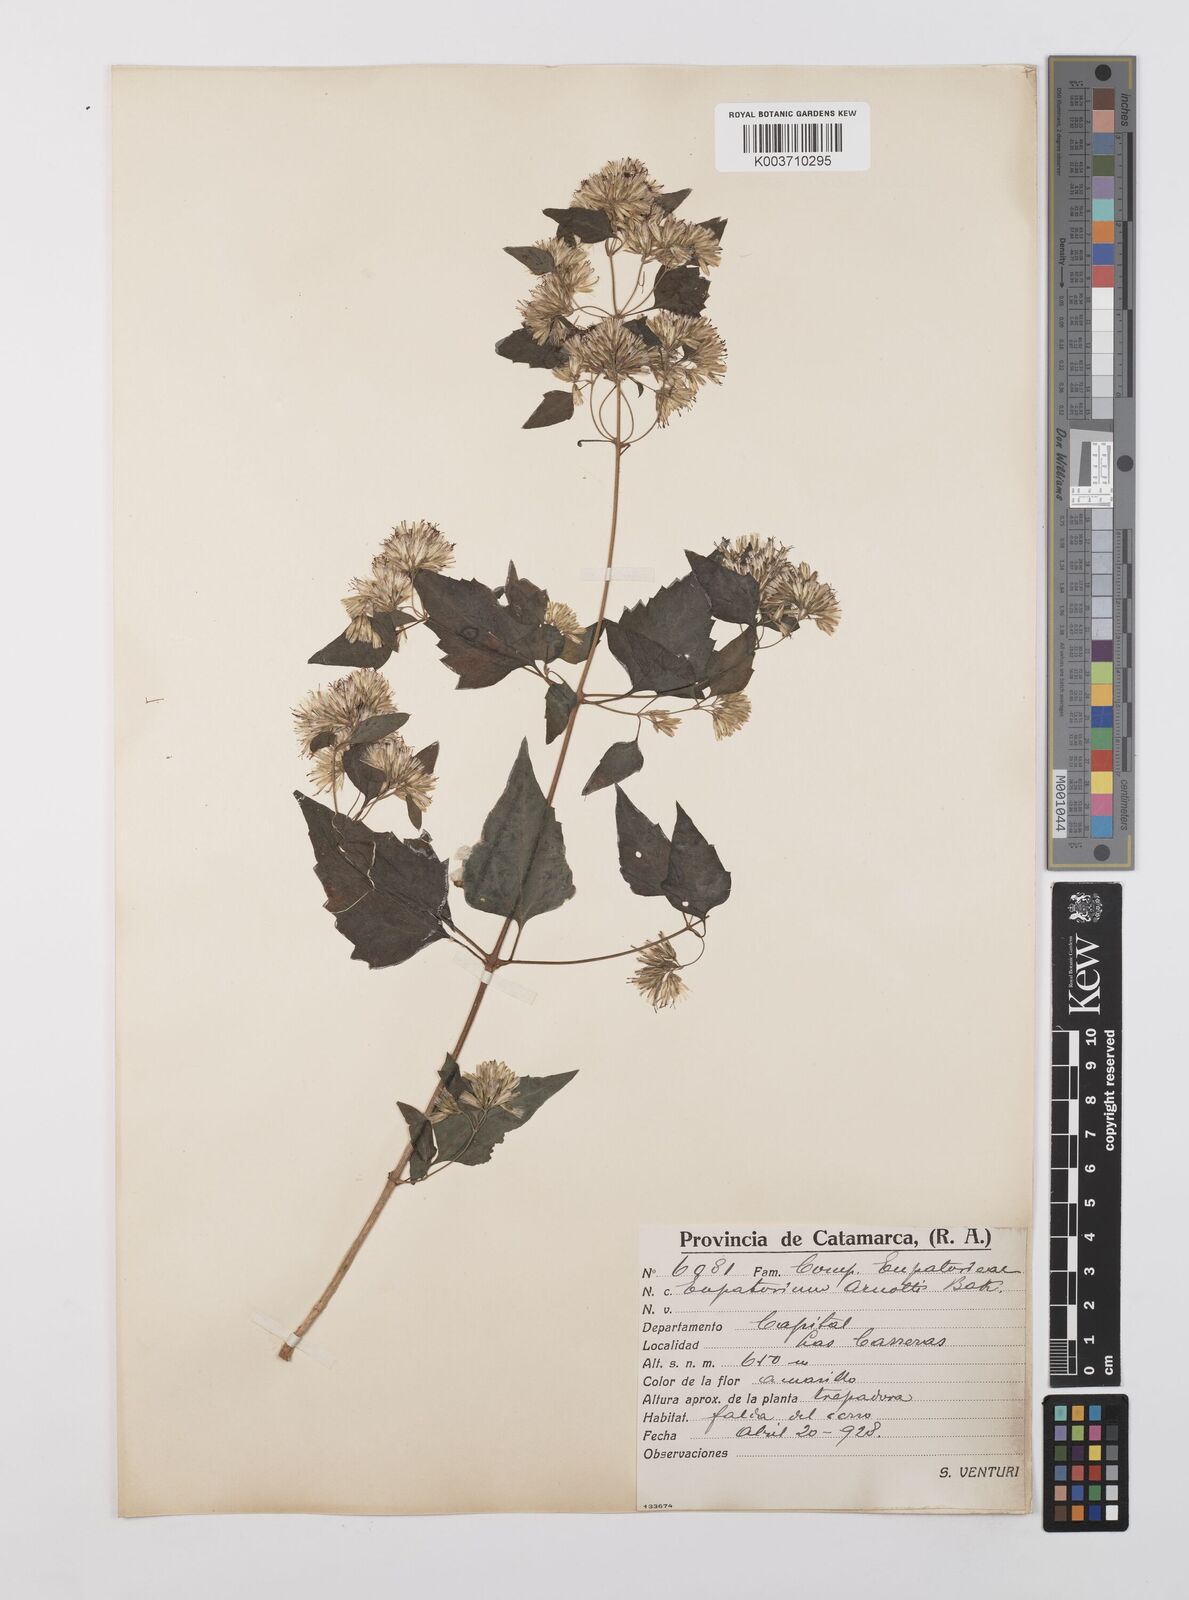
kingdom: Plantae
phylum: Tracheophyta
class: Magnoliopsida
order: Asterales
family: Asteraceae
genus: Austrobrickellia
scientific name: Austrobrickellia arnottii
